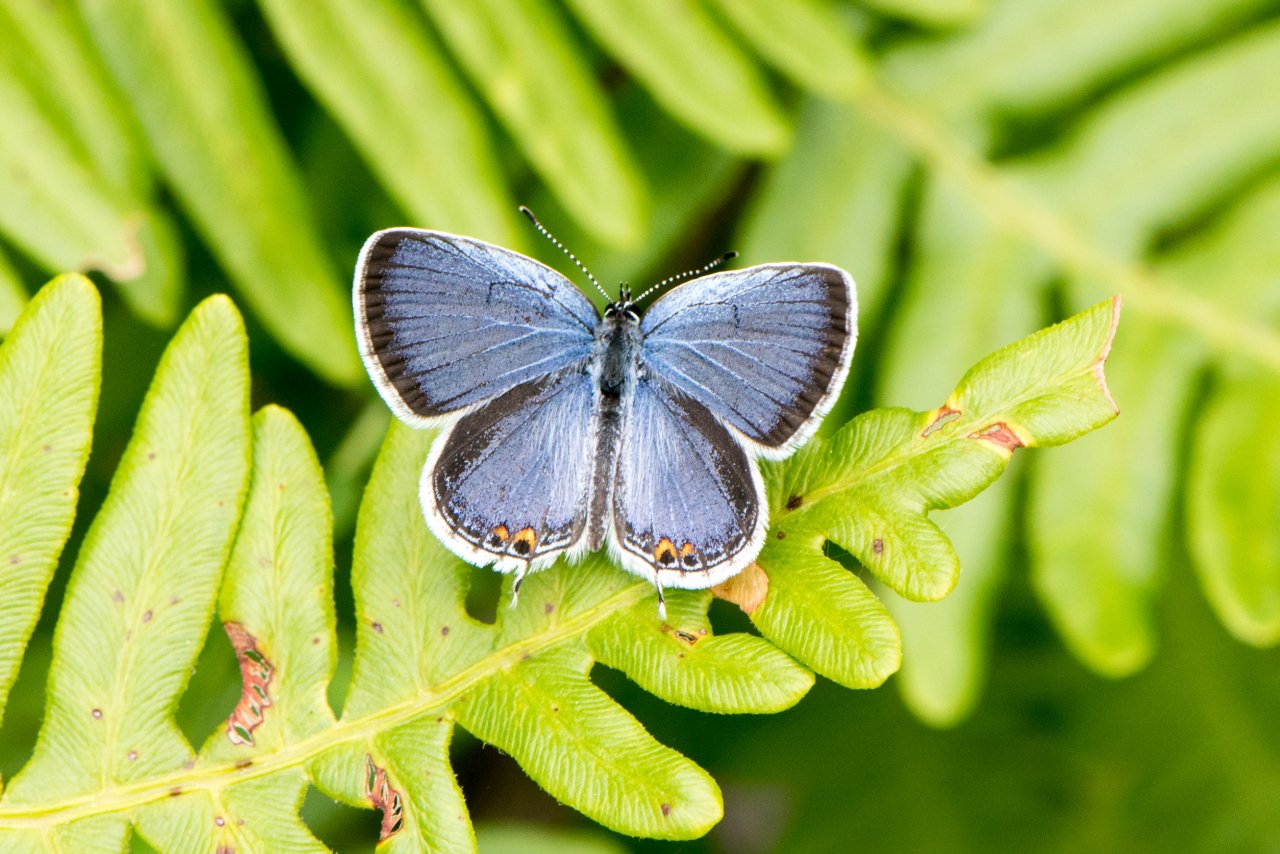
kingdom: Animalia
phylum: Arthropoda
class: Insecta
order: Lepidoptera
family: Lycaenidae
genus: Elkalyce
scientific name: Elkalyce comyntas
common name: Eastern Tailed-Blue
